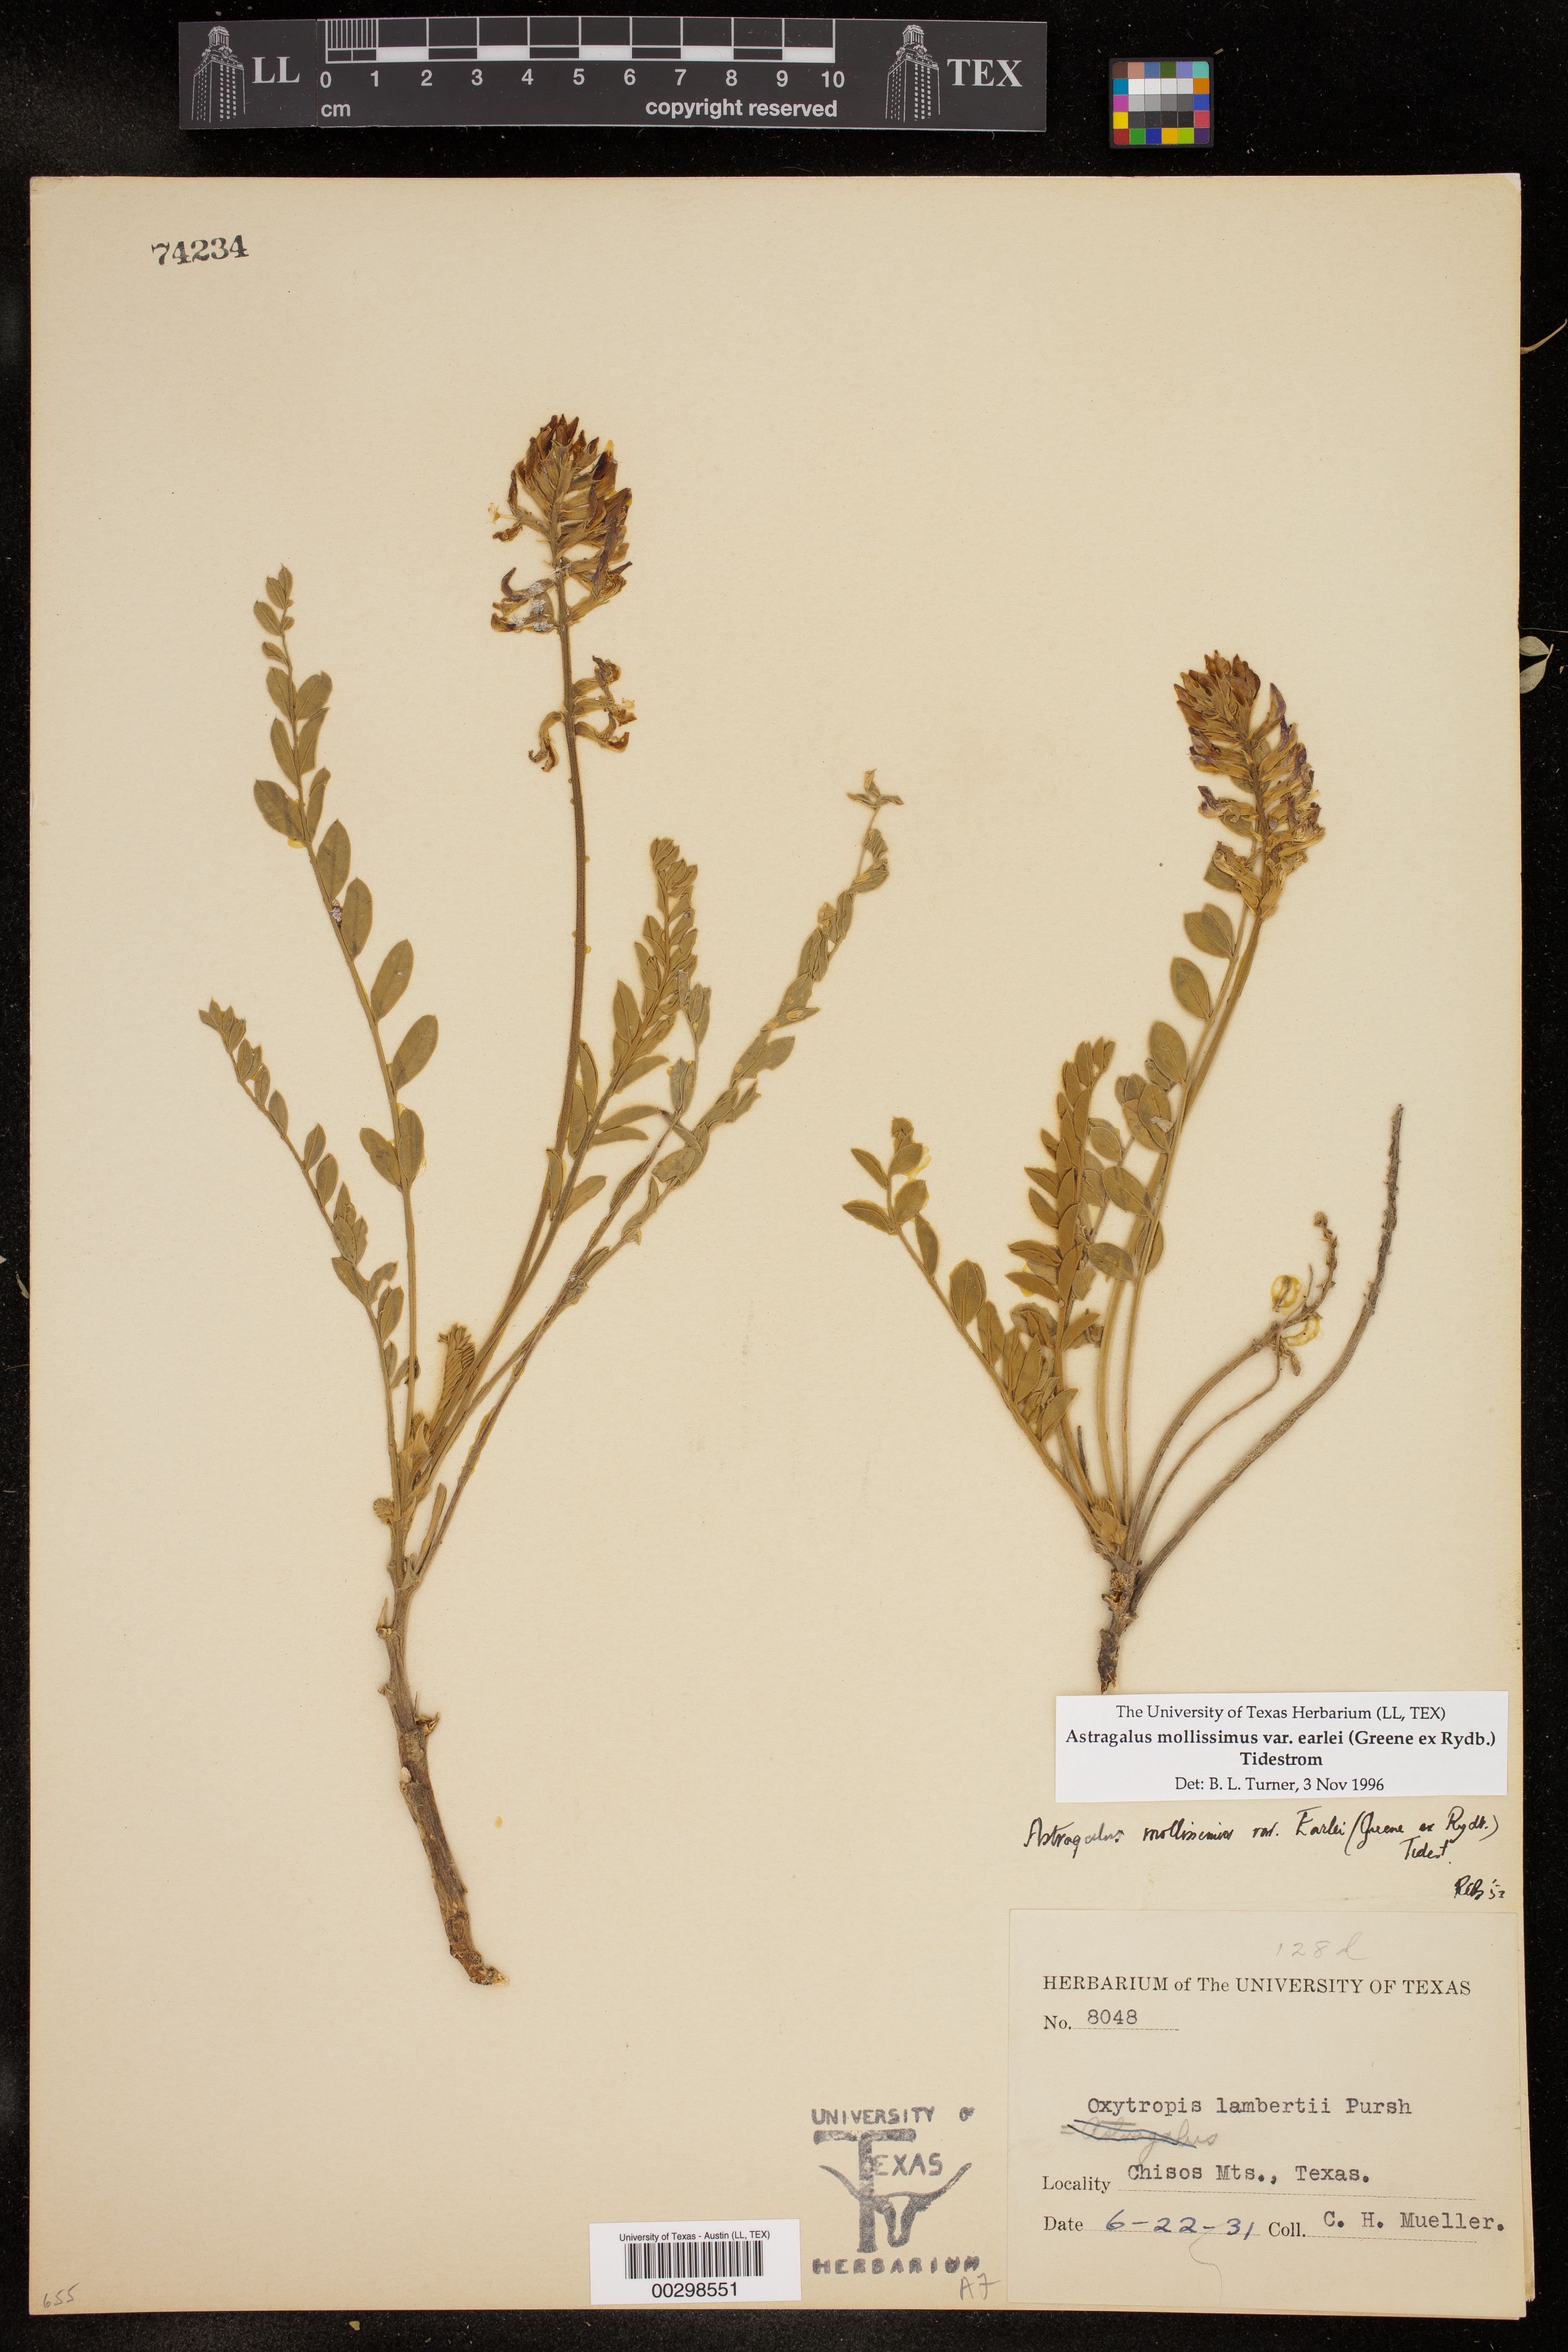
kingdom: Plantae
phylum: Tracheophyta
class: Magnoliopsida
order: Fabales
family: Fabaceae
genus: Astragalus
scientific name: Astragalus mollissimus
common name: Woolly locoweed
